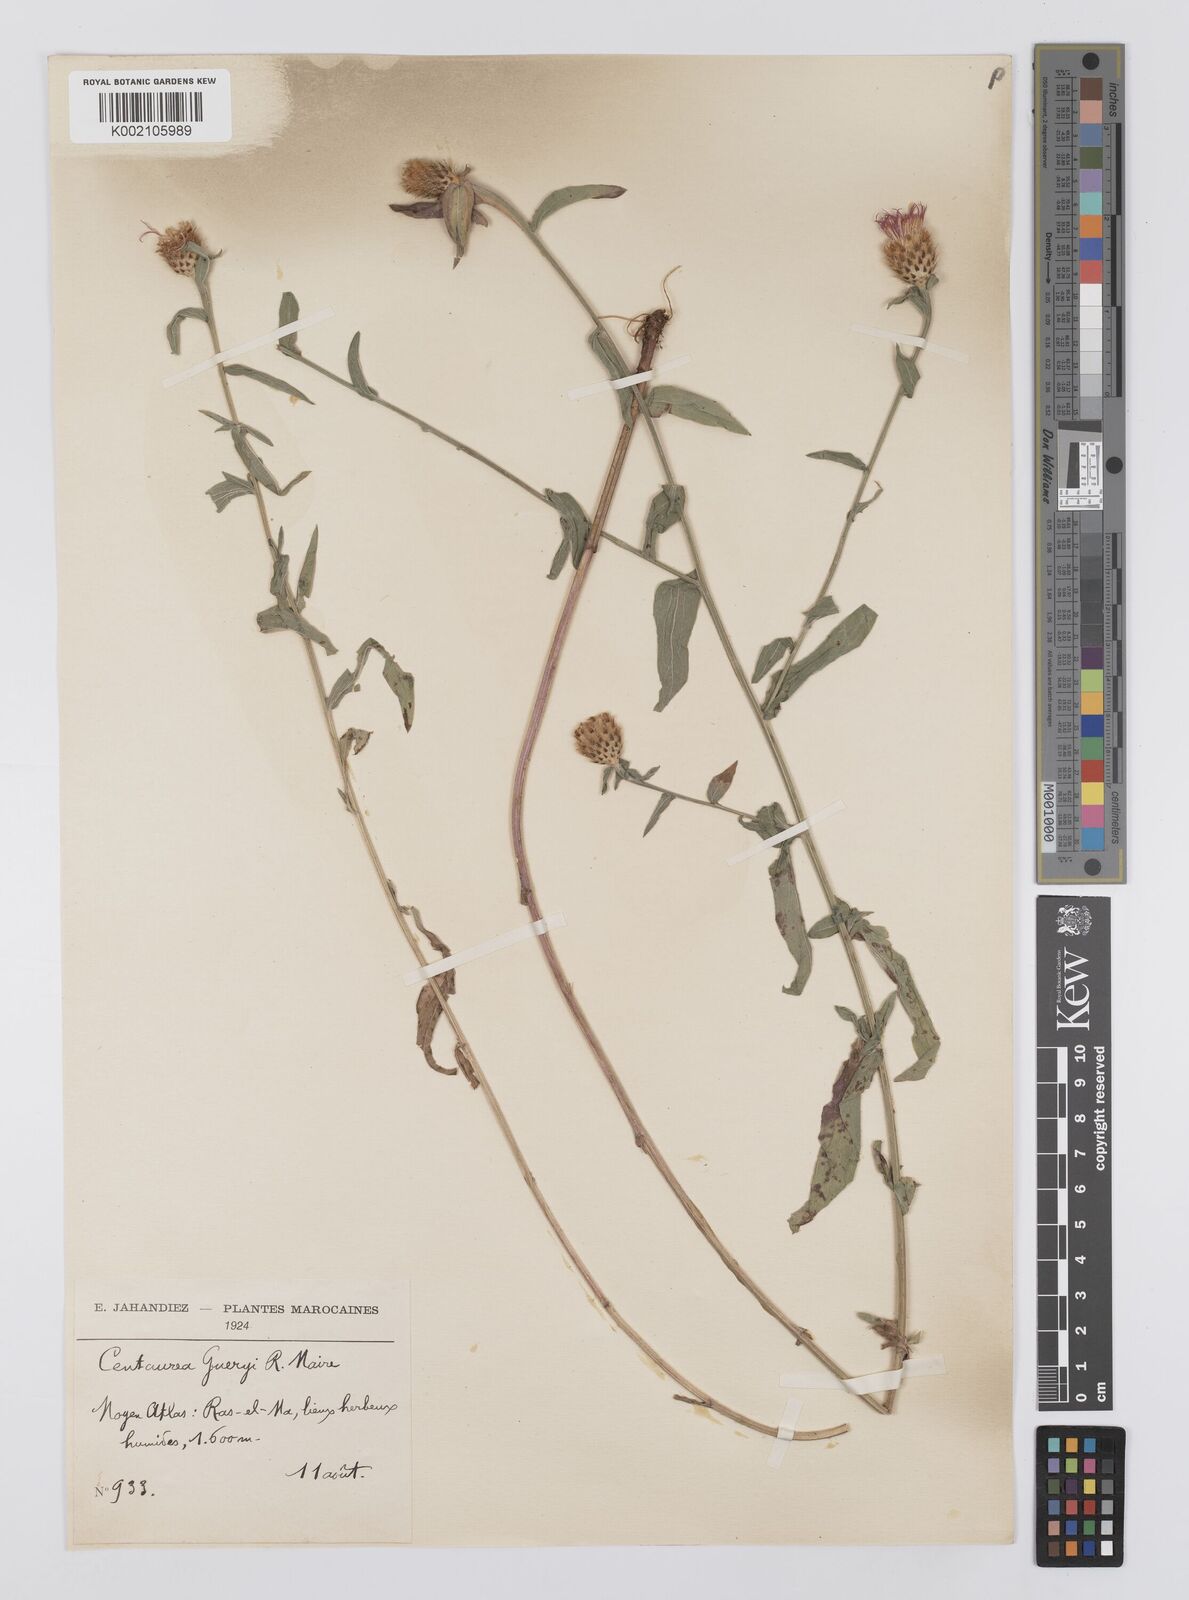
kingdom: Plantae
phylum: Tracheophyta
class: Magnoliopsida
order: Asterales
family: Asteraceae
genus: Centaurea
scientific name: Centaurea nigra
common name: Lesser knapweed
